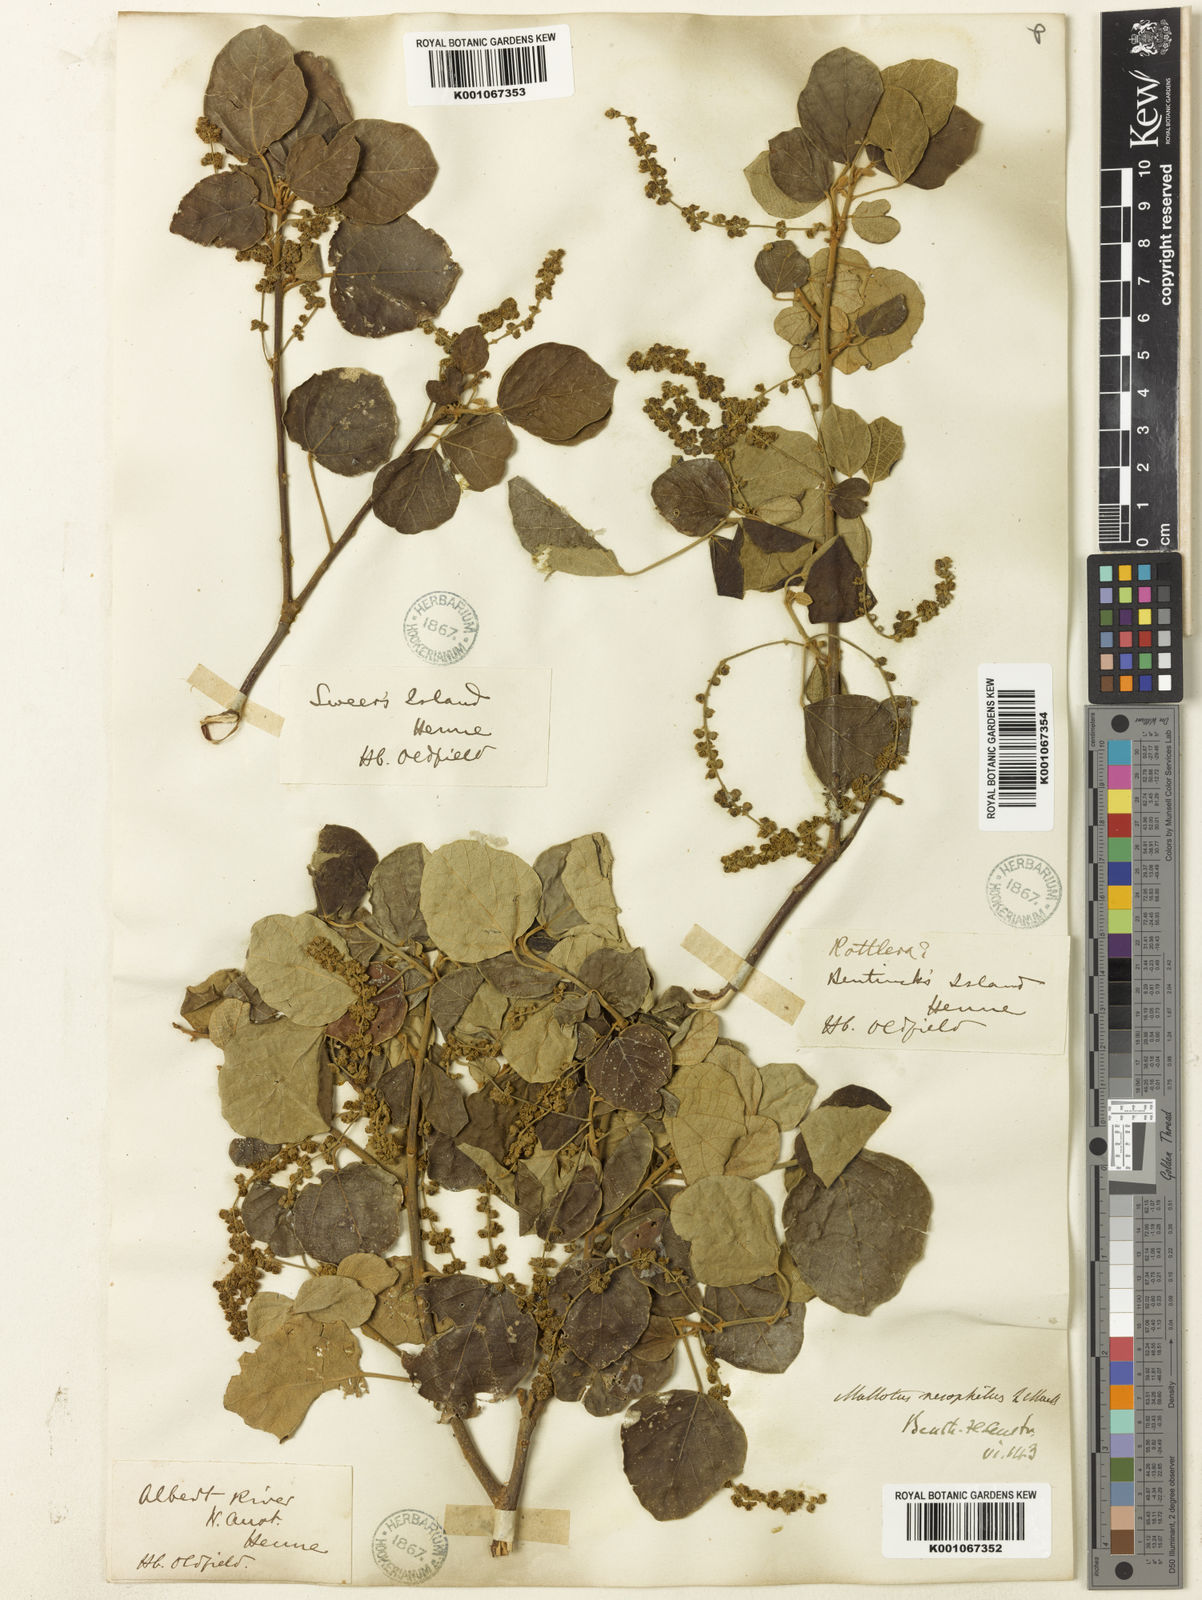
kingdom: Plantae
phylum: Tracheophyta
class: Magnoliopsida
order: Malpighiales
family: Euphorbiaceae
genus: Mallotus
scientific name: Mallotus nesophilus
